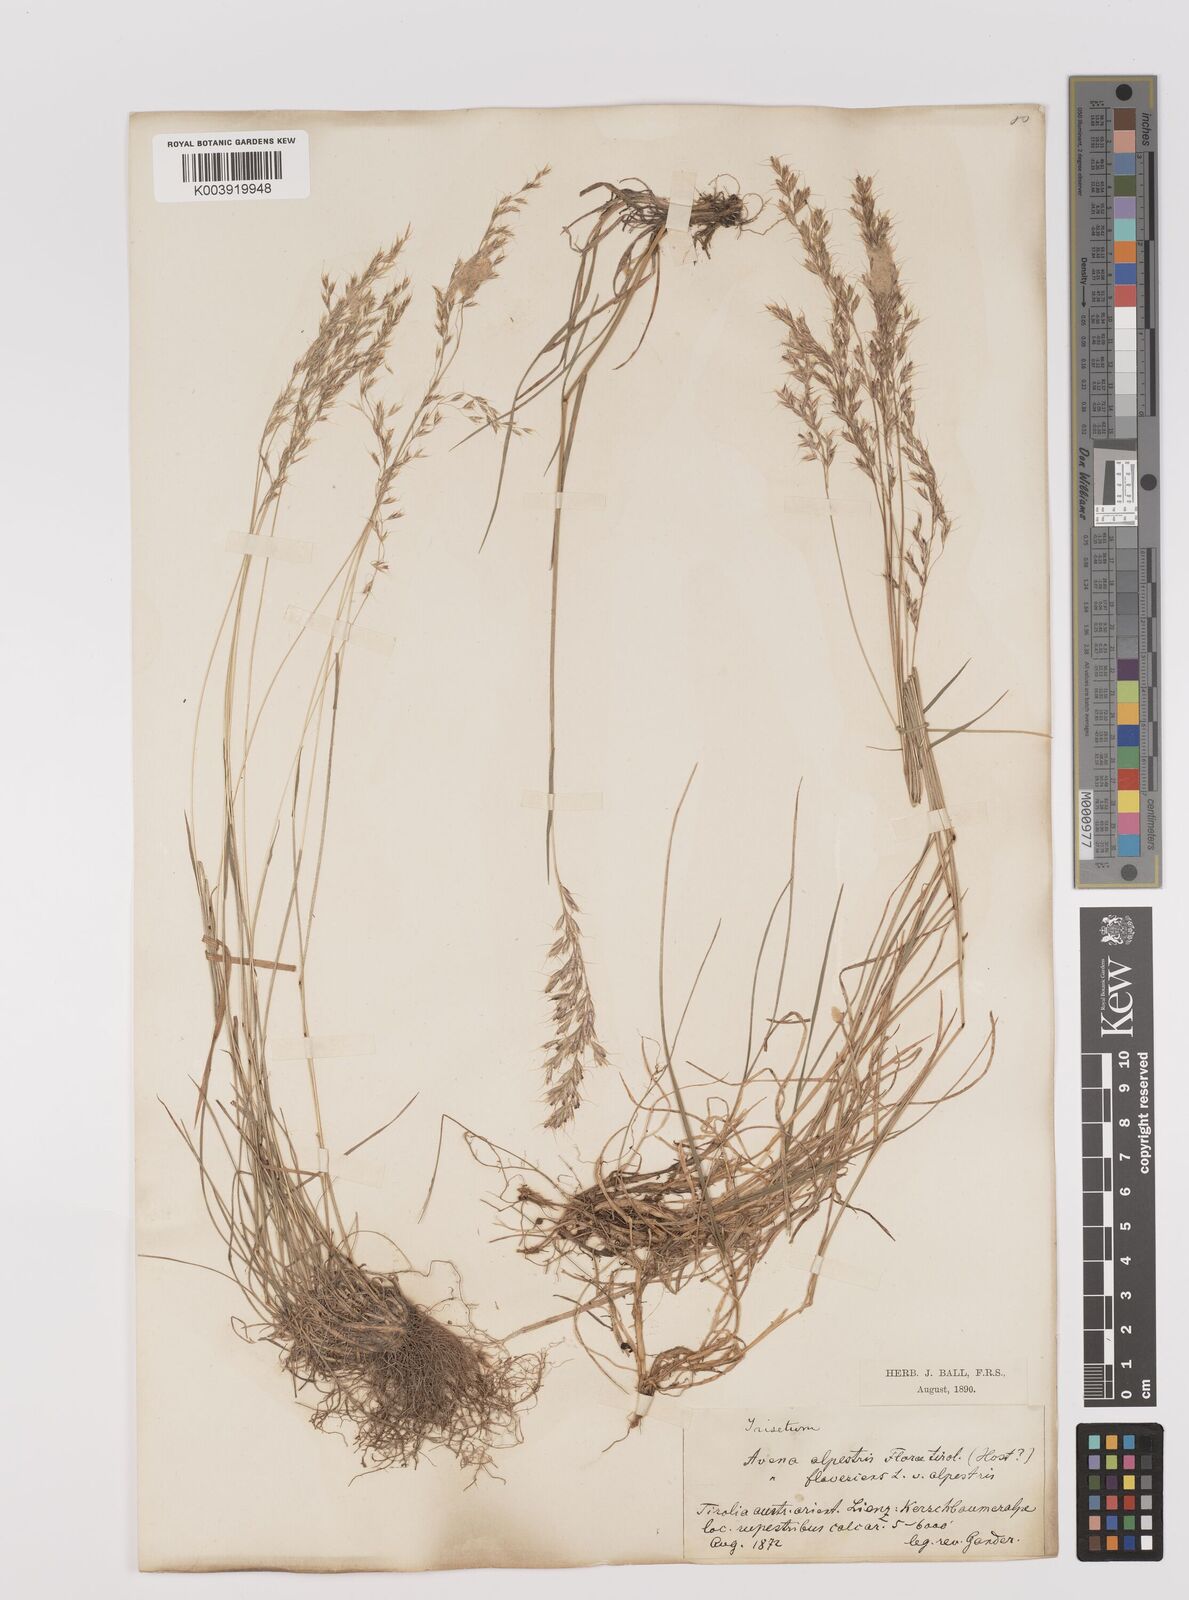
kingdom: Plantae
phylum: Tracheophyta
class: Liliopsida
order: Poales
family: Poaceae
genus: Trisetum
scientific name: Trisetum alpestre
